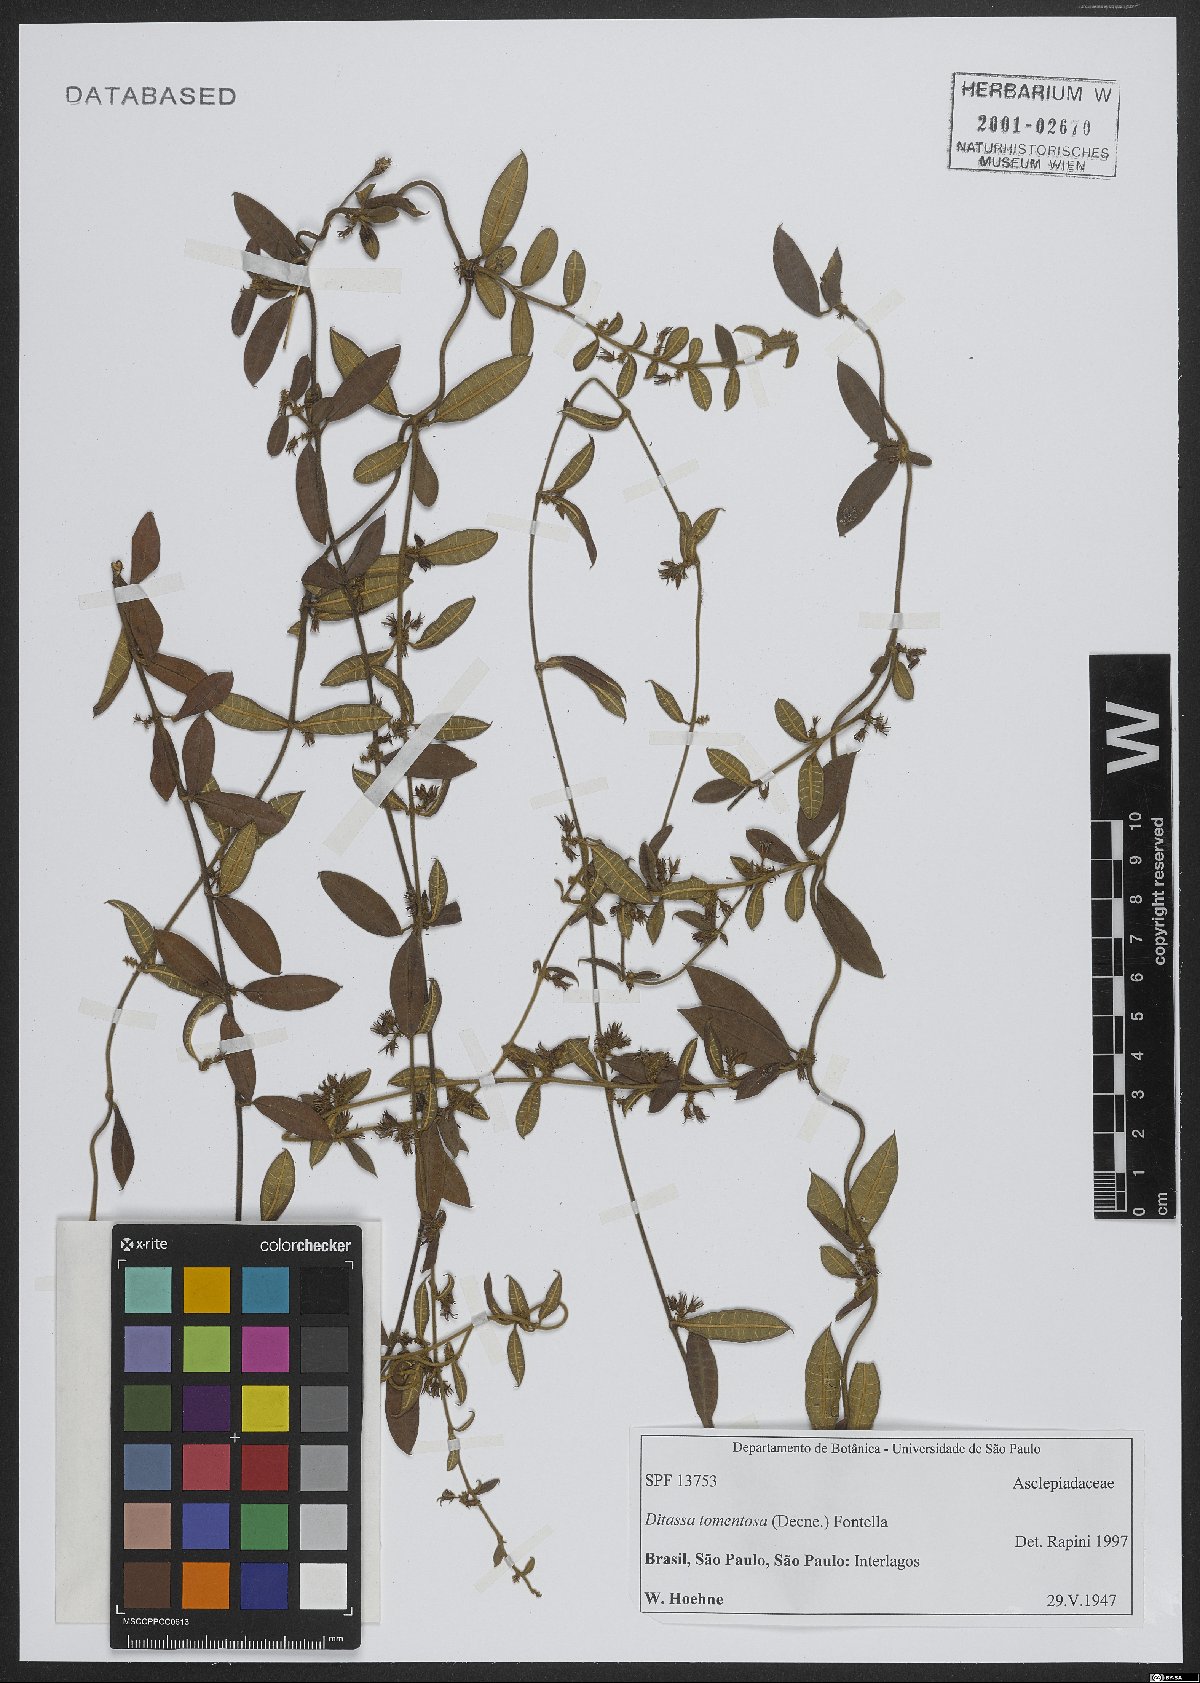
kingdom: Plantae
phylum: Tracheophyta
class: Magnoliopsida
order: Gentianales
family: Apocynaceae
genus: Ditassa
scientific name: Ditassa tomentosa
